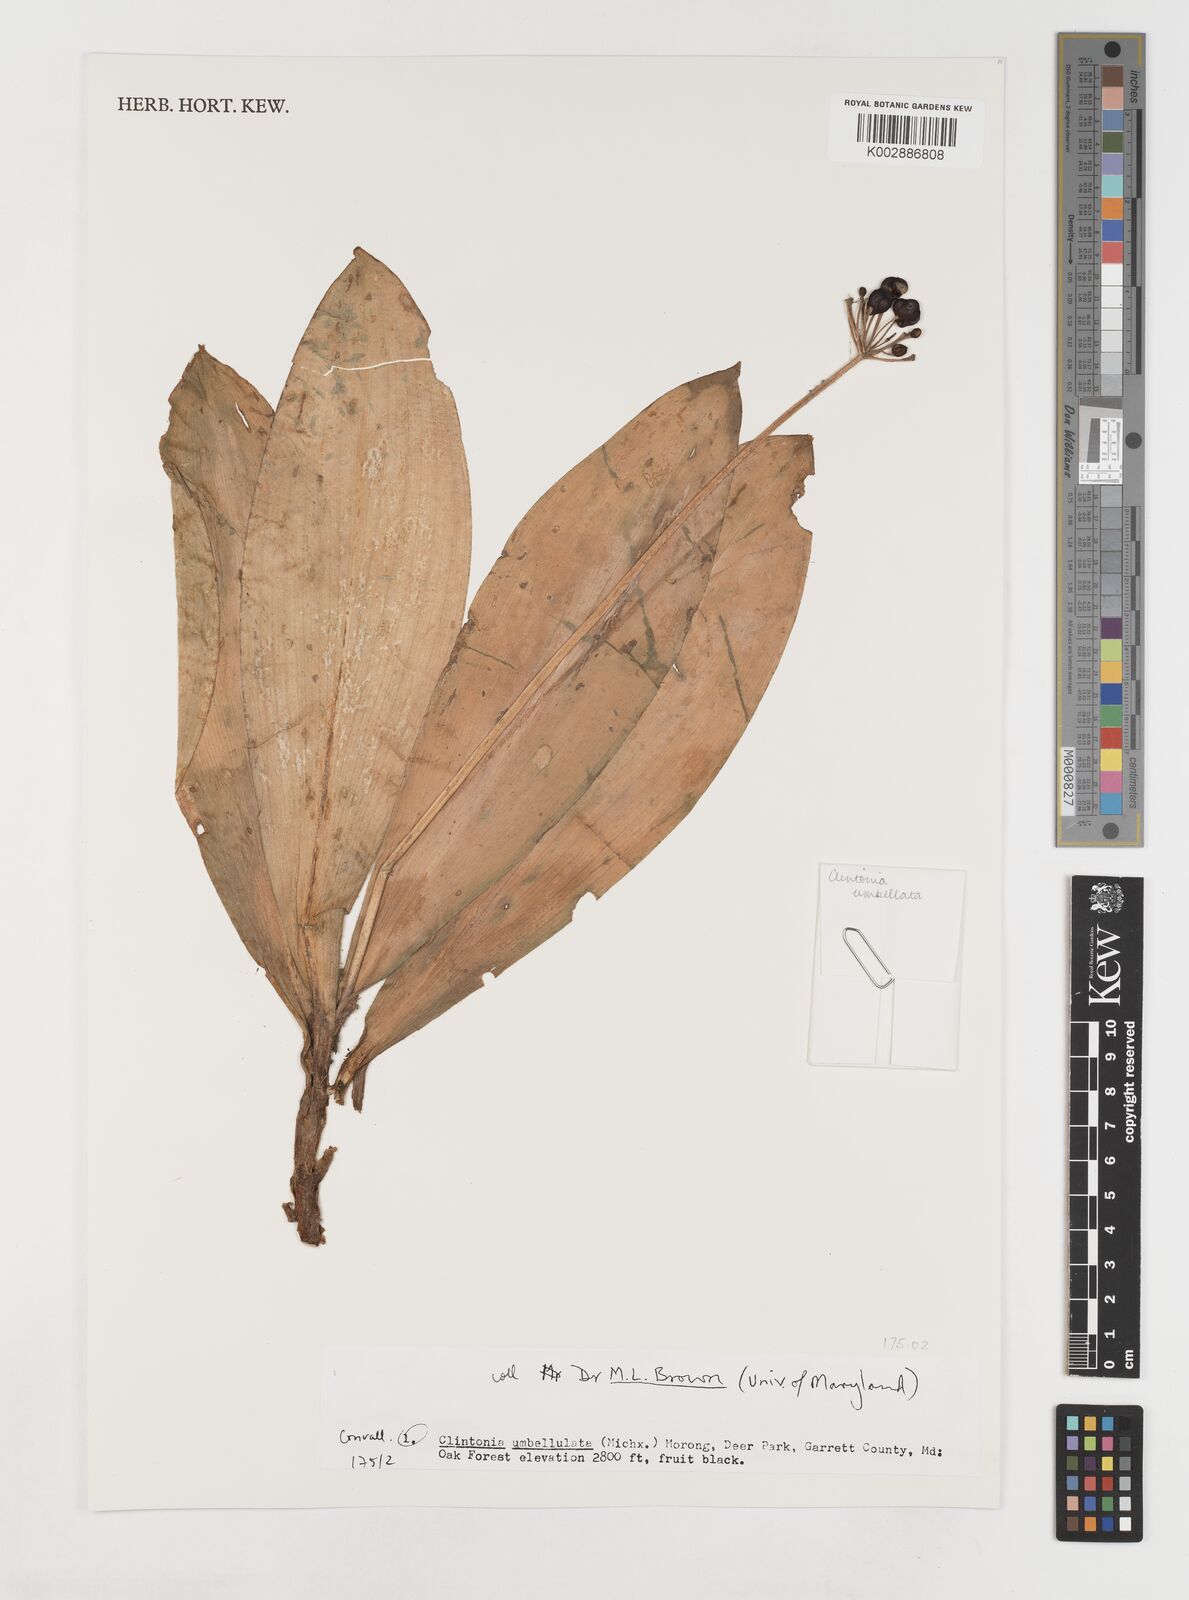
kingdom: Plantae
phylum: Tracheophyta
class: Liliopsida
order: Liliales
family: Liliaceae
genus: Clintonia
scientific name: Clintonia umbellulata
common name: Speckle wood-lily
